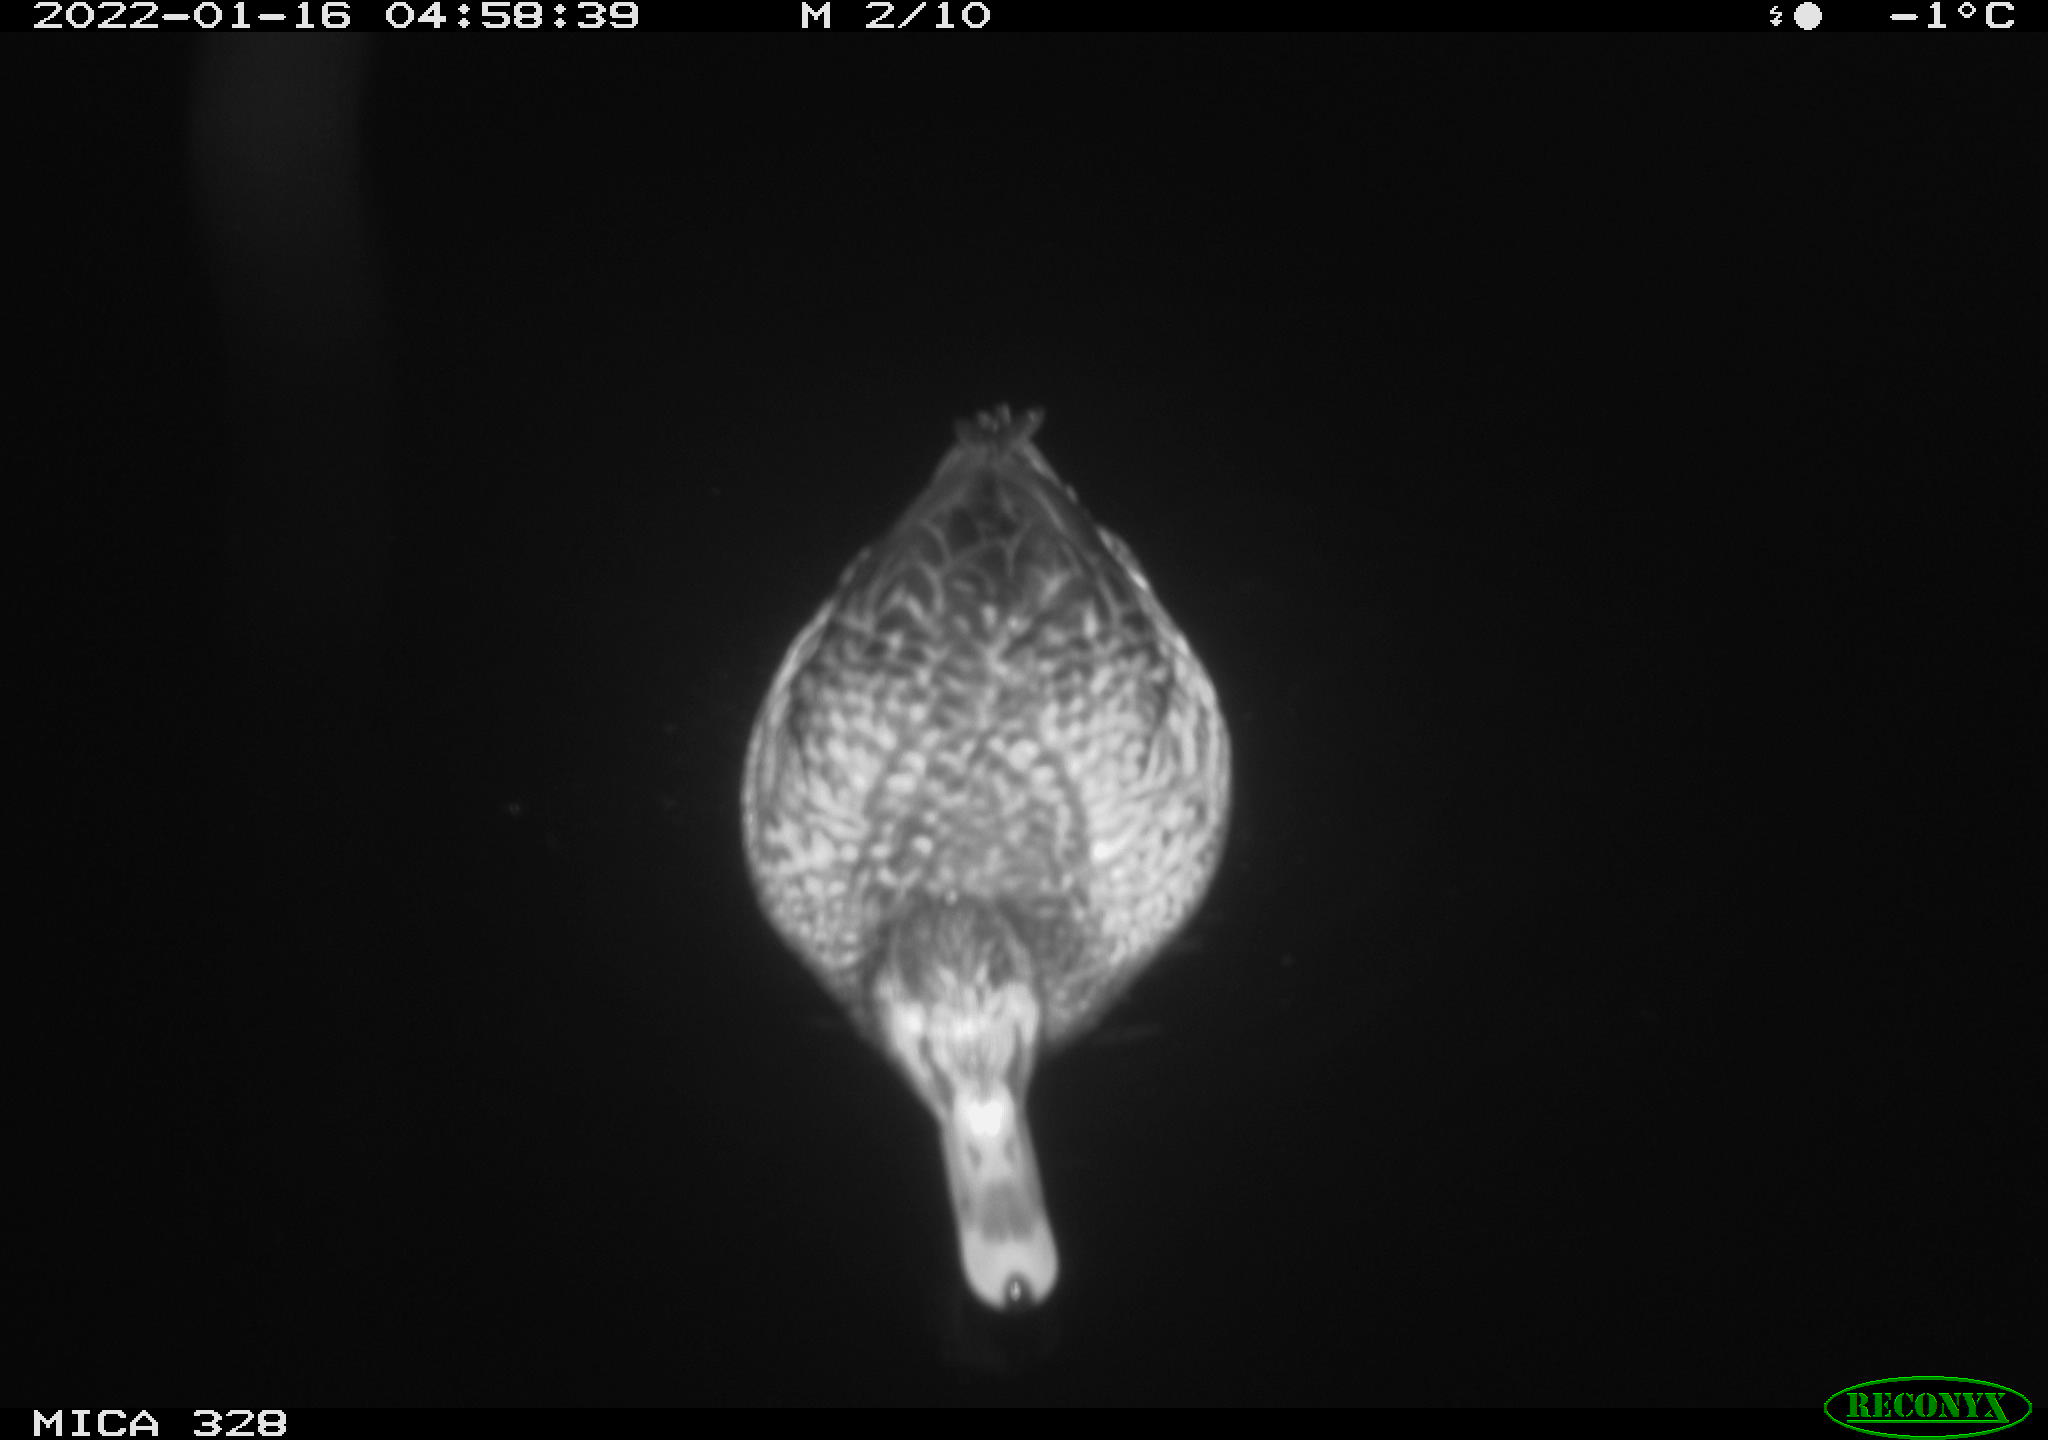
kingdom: Animalia
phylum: Chordata
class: Aves
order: Anseriformes
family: Anatidae
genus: Anas
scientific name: Anas platyrhynchos
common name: Mallard
